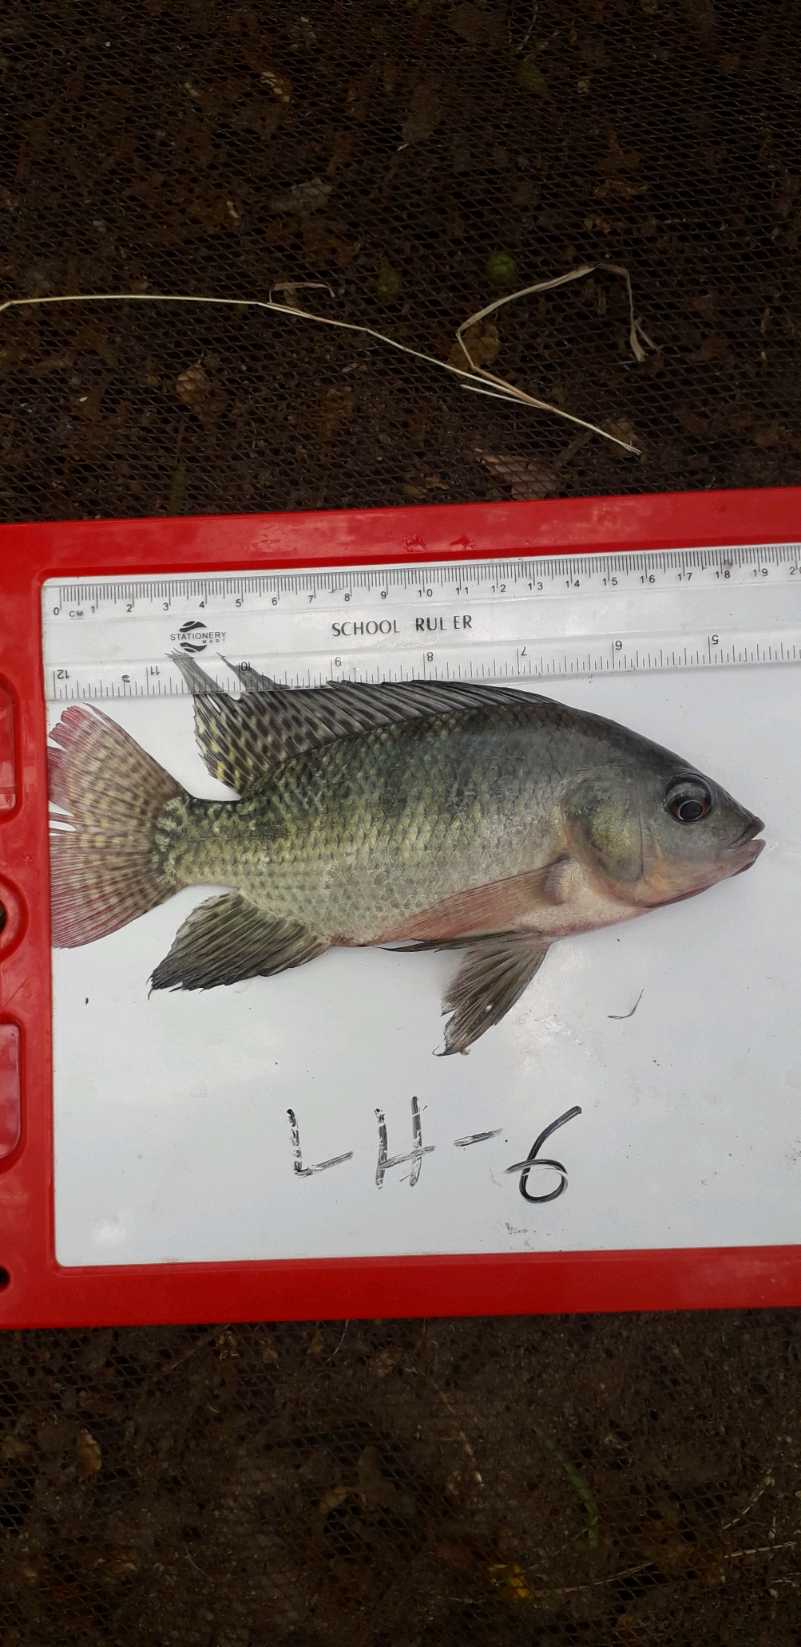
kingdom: Animalia
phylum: Chordata
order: Perciformes
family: Cichlidae
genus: Oreochromis
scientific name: Oreochromis niloticus
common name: Nile tilapia
